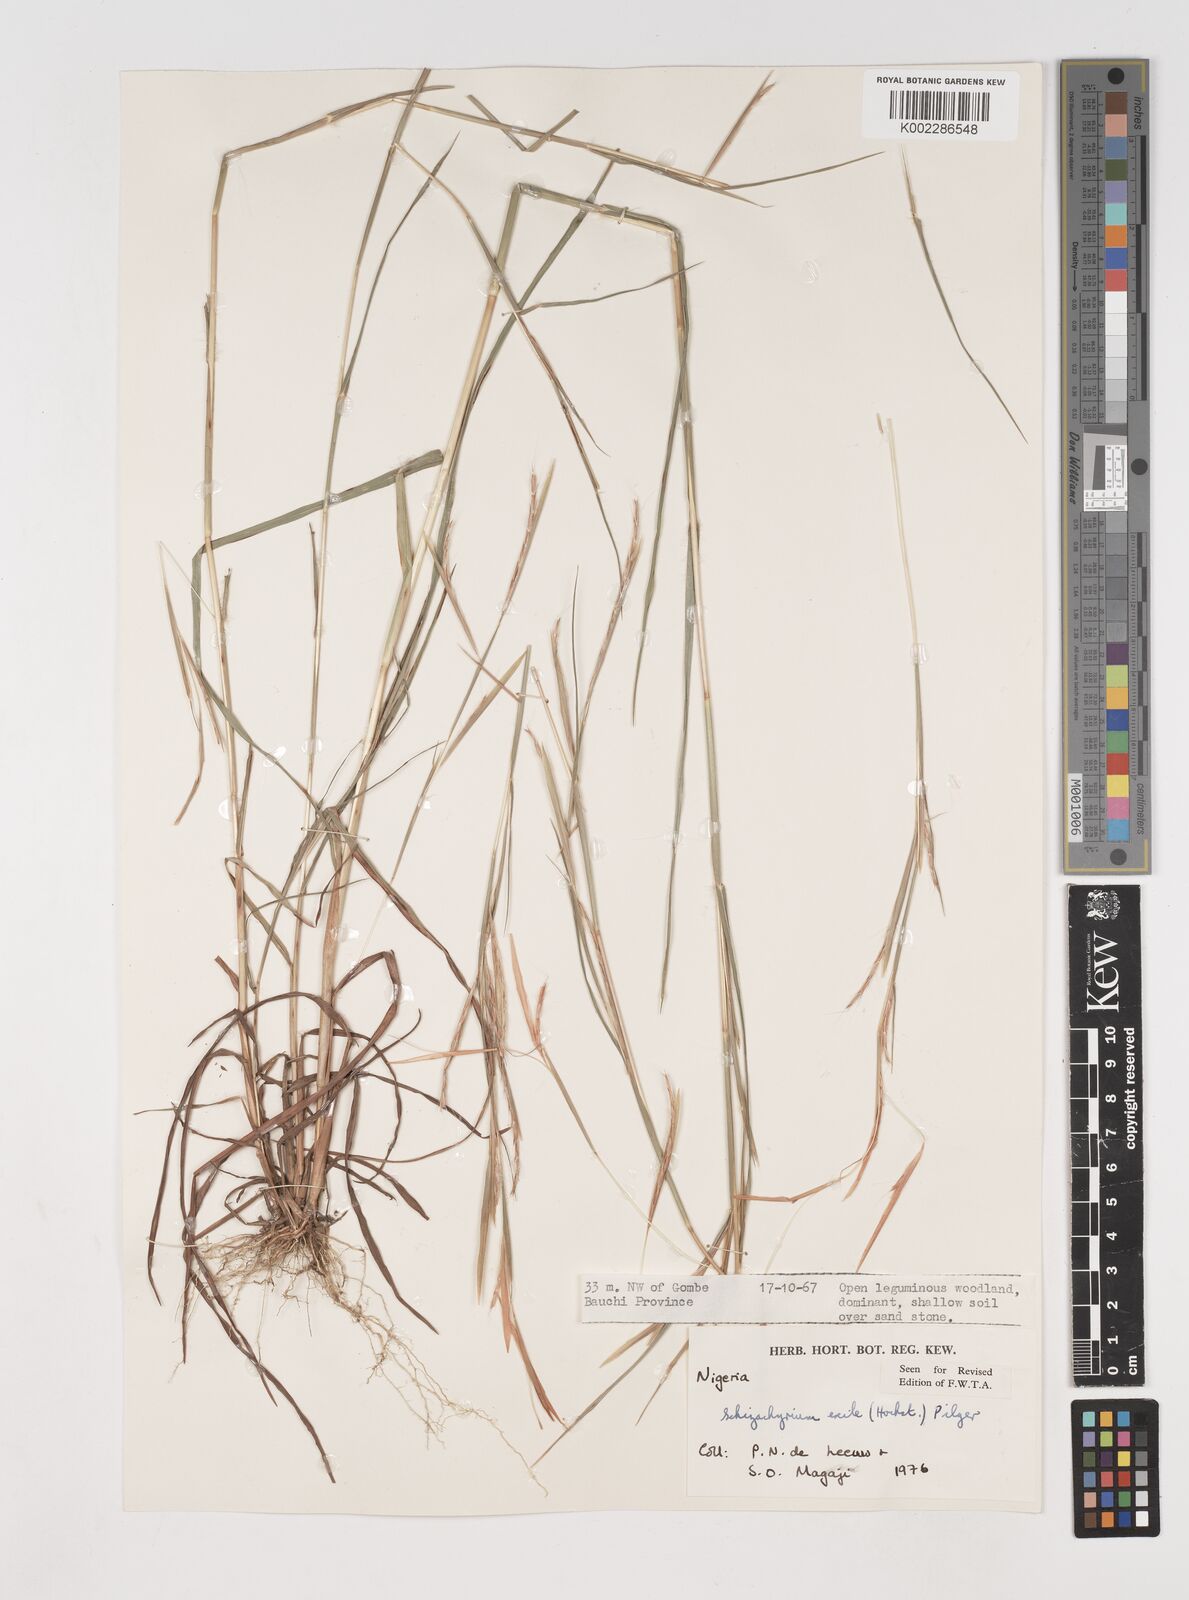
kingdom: Plantae
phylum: Tracheophyta
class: Liliopsida
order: Poales
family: Poaceae
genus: Schizachyrium
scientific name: Schizachyrium exile
